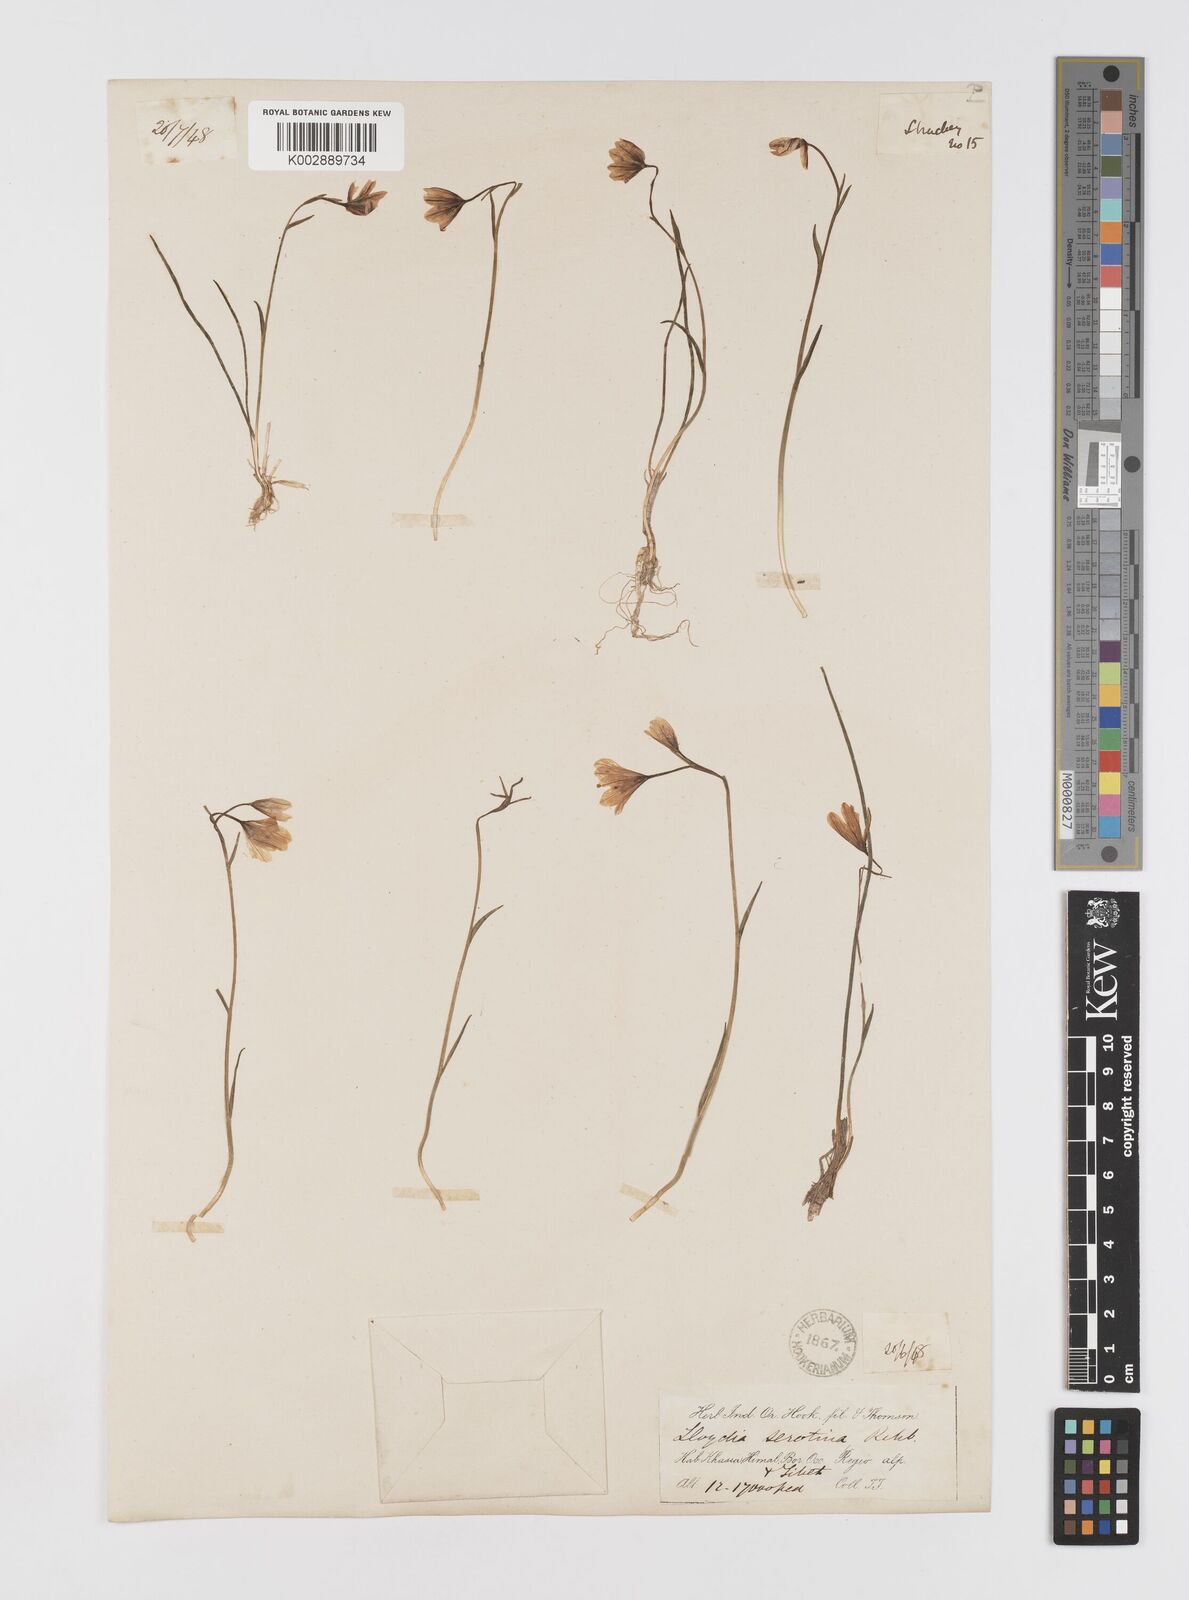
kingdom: Plantae
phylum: Tracheophyta
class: Liliopsida
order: Liliales
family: Liliaceae
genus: Gagea
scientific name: Gagea serotina
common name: Snowdon lily
